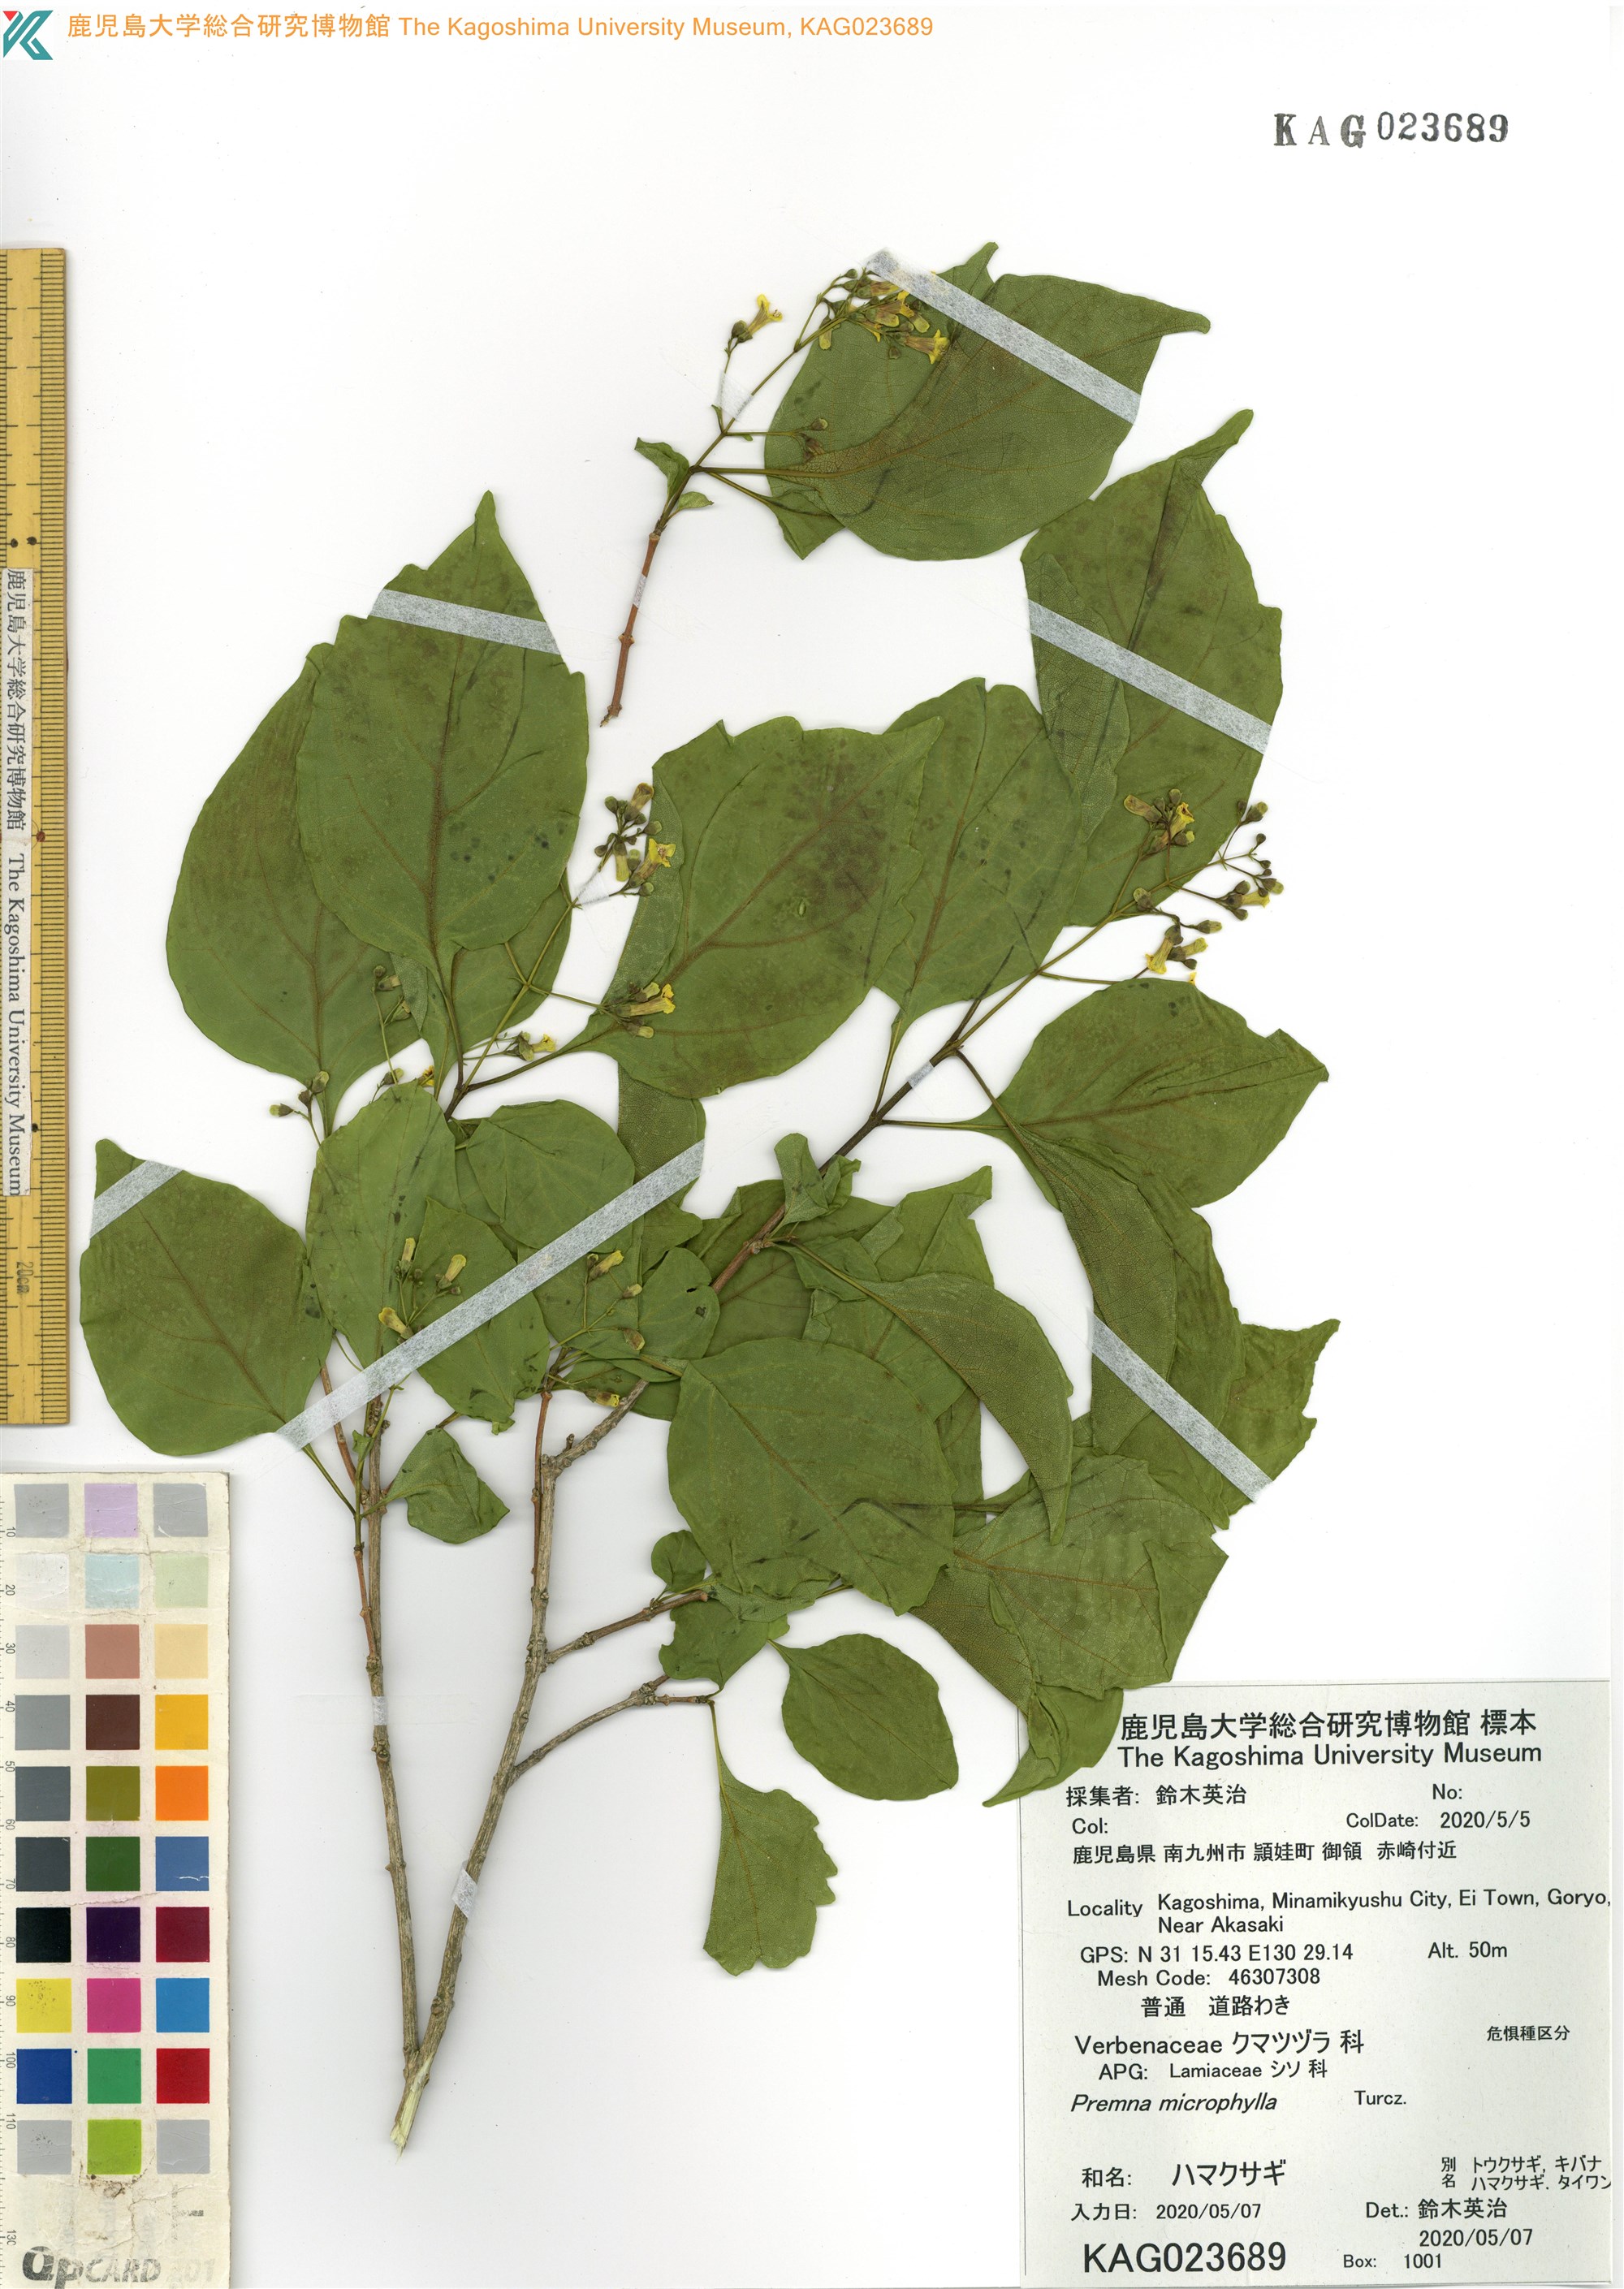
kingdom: Plantae
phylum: Tracheophyta
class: Magnoliopsida
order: Lamiales
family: Lamiaceae
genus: Premna
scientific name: Premna microphylla
